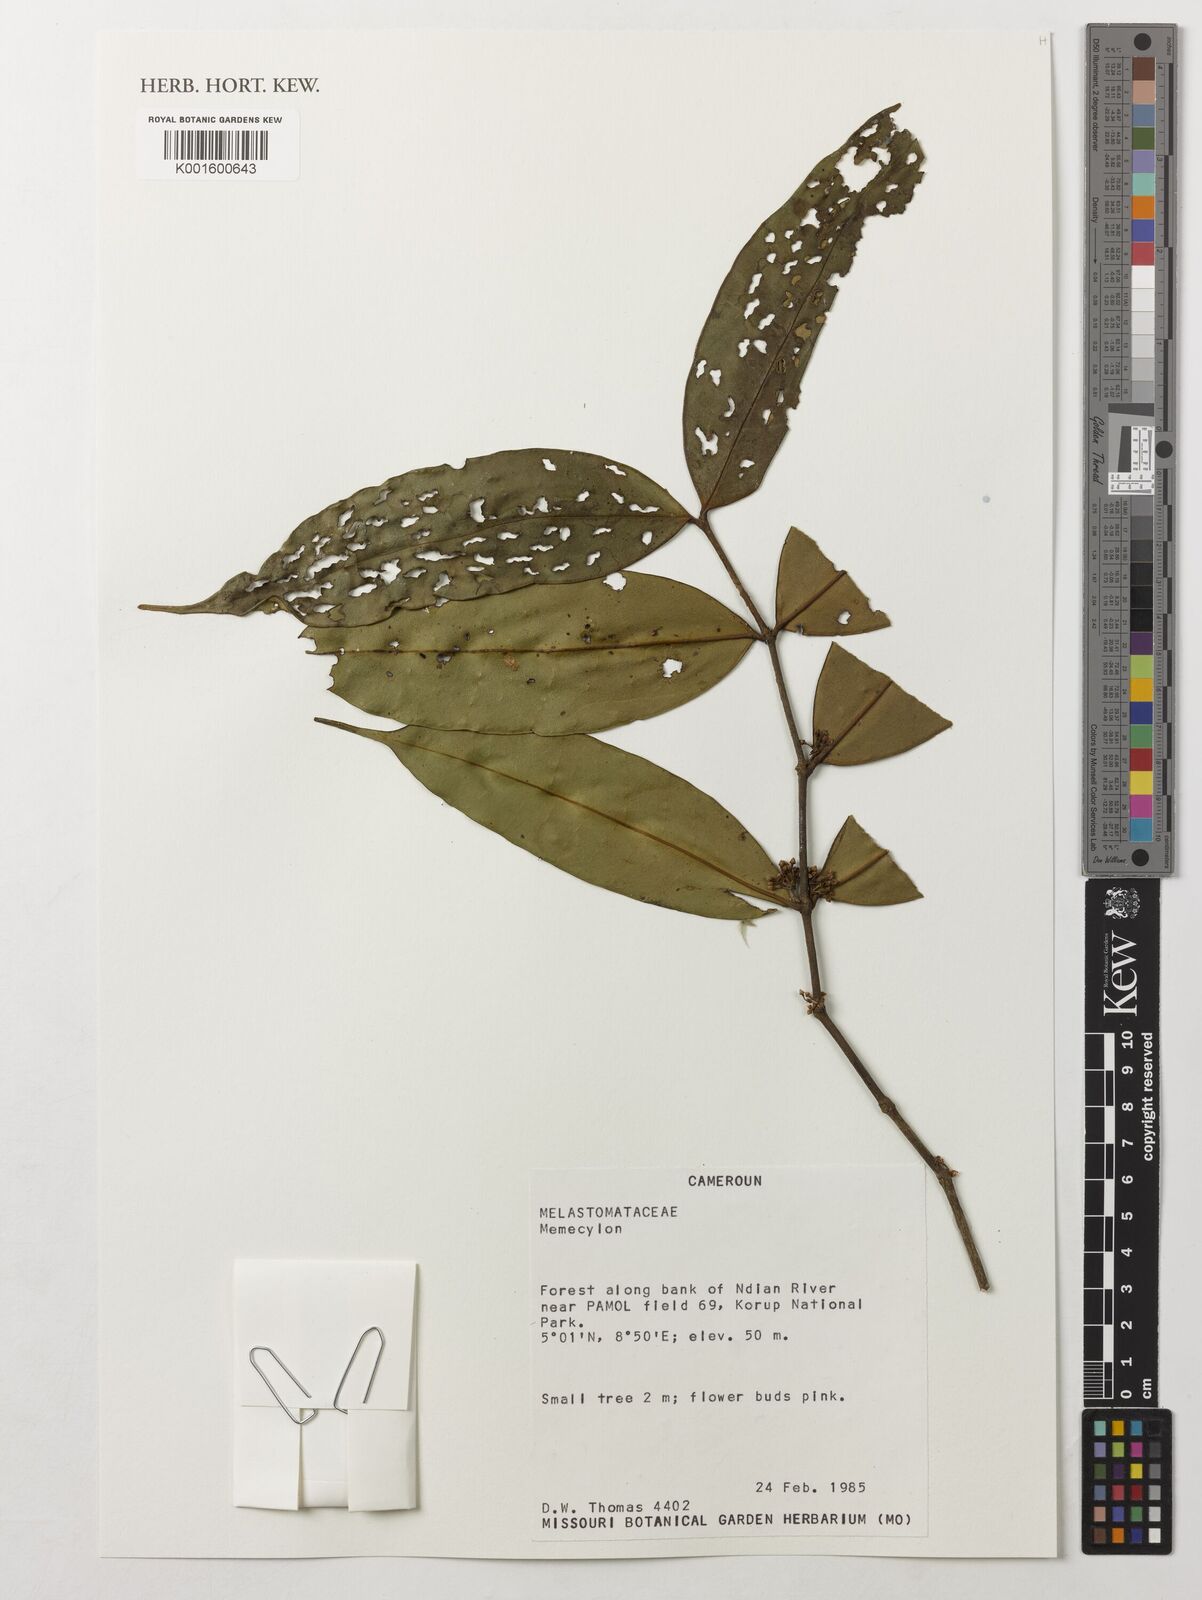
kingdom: Plantae
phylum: Tracheophyta
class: Magnoliopsida
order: Myrtales
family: Melastomataceae
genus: Memecylon
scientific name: Memecylon
